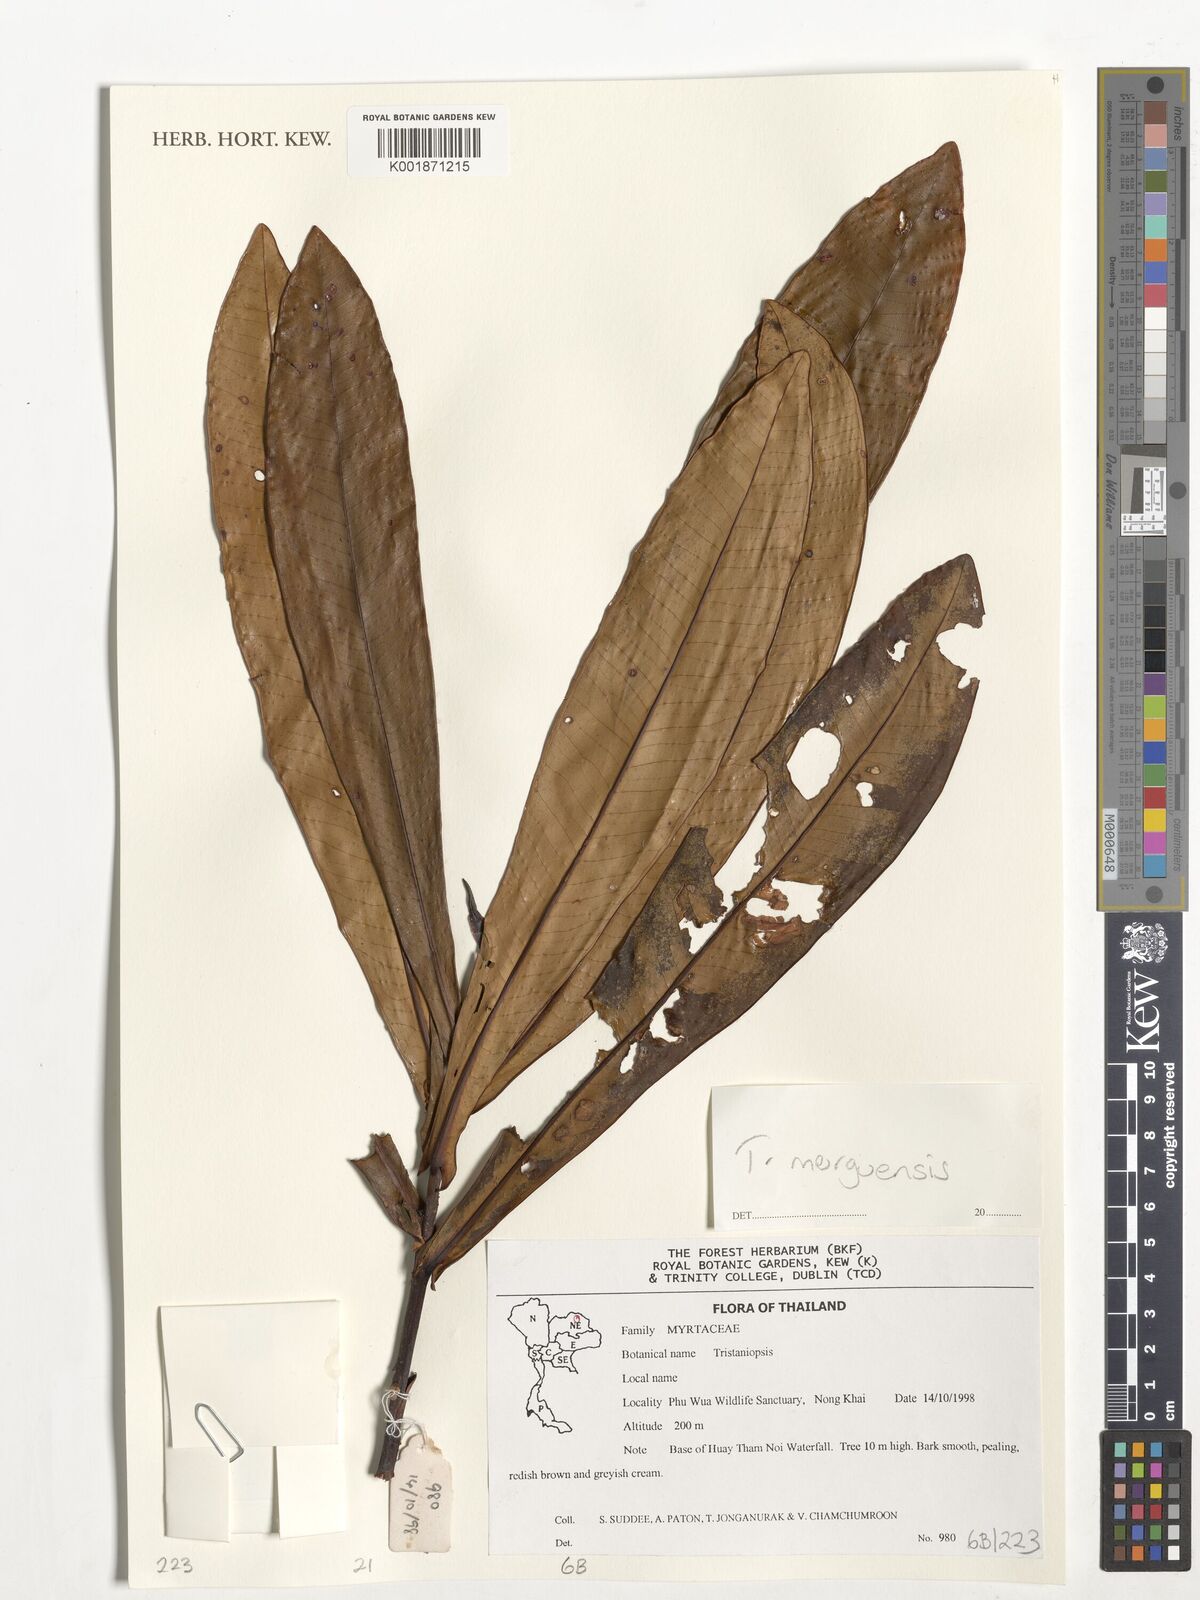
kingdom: Plantae
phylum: Tracheophyta
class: Magnoliopsida
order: Myrtales
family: Myrtaceae
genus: Tristaniopsis
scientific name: Tristaniopsis merguensis
